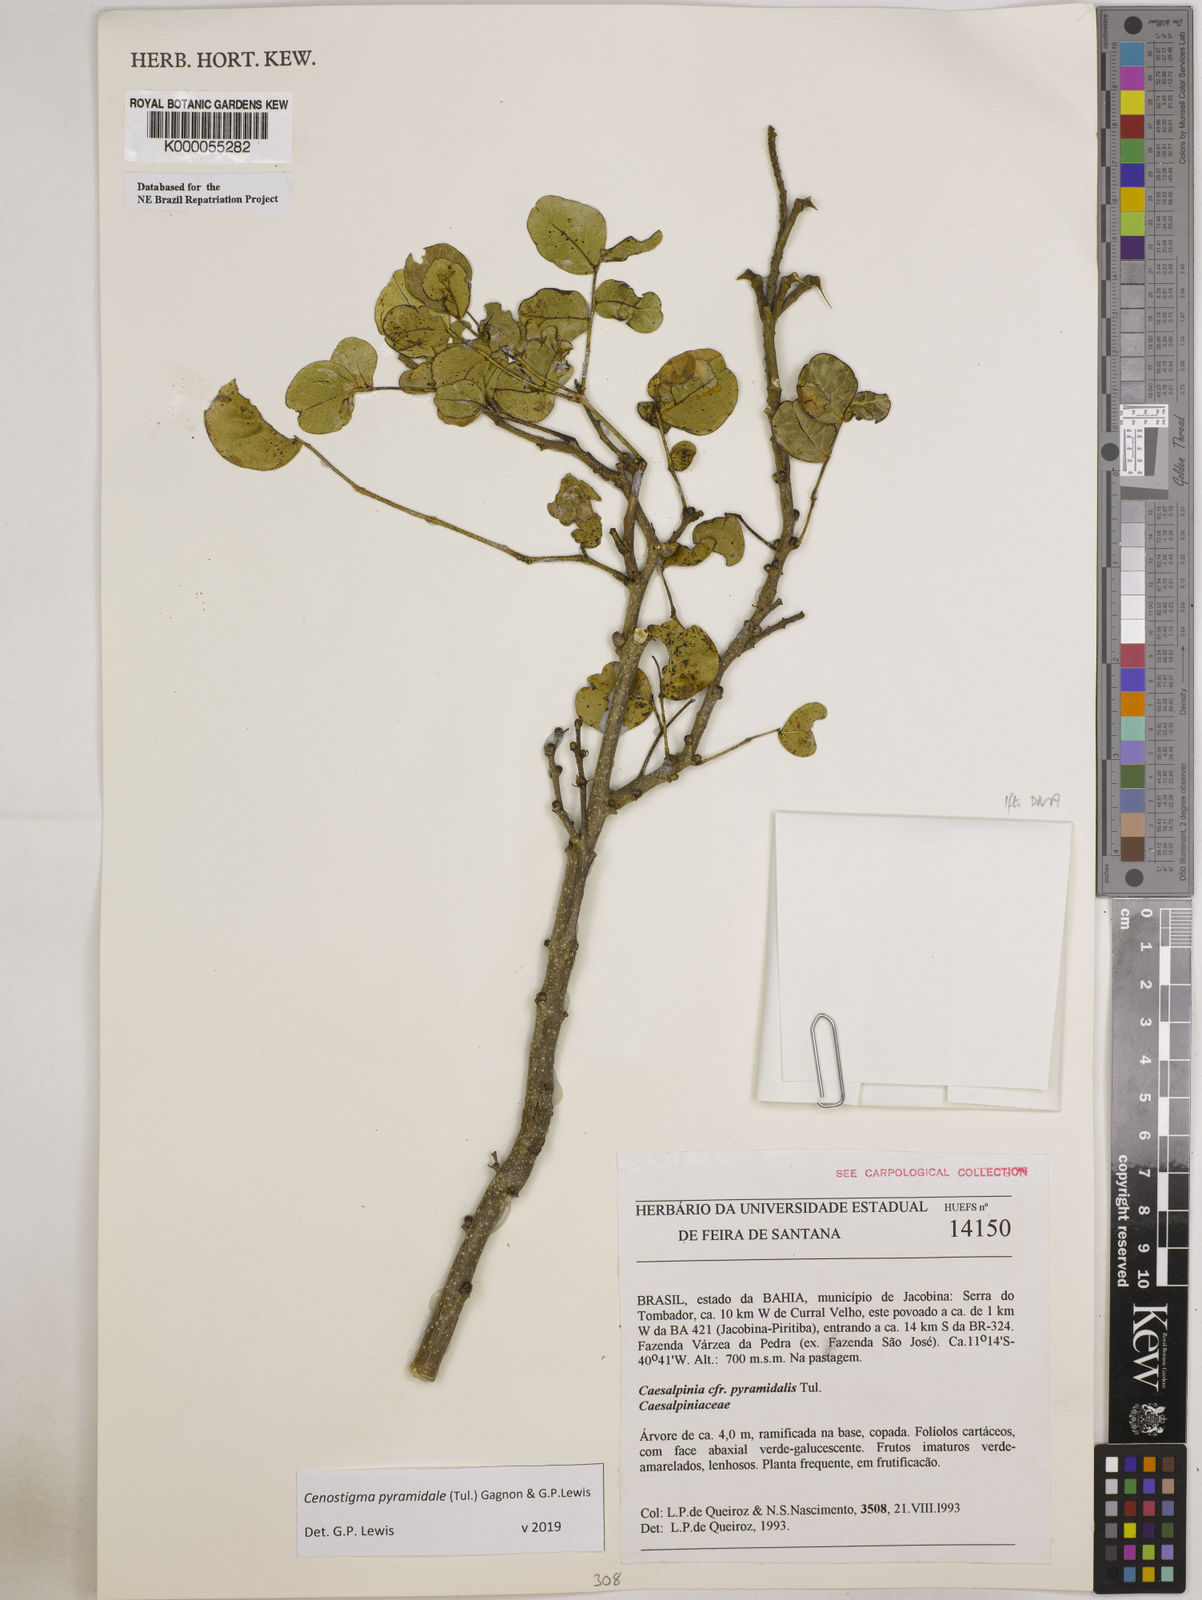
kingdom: Plantae
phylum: Tracheophyta
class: Magnoliopsida
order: Fabales
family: Fabaceae
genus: Cenostigma
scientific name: Cenostigma pyramidale
